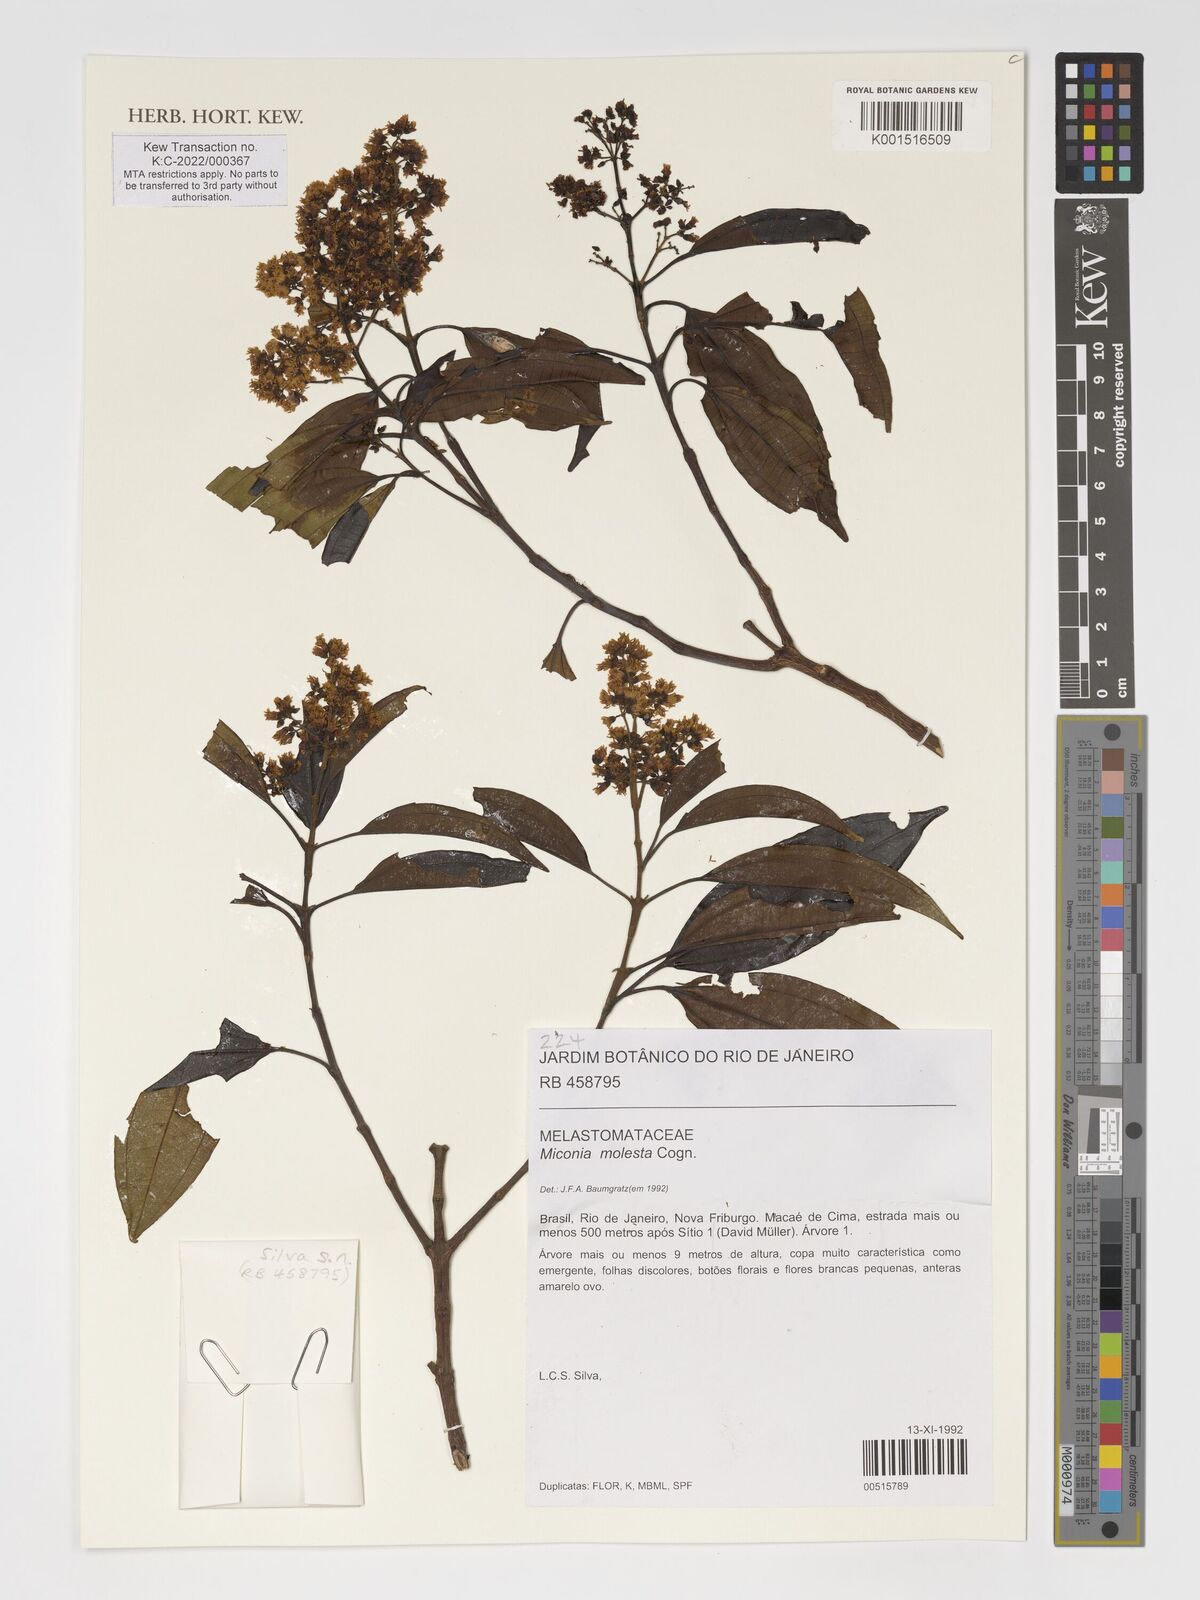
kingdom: Plantae
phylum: Tracheophyta
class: Magnoliopsida
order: Myrtales
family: Melastomataceae
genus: Miconia
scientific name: Miconia molesta
